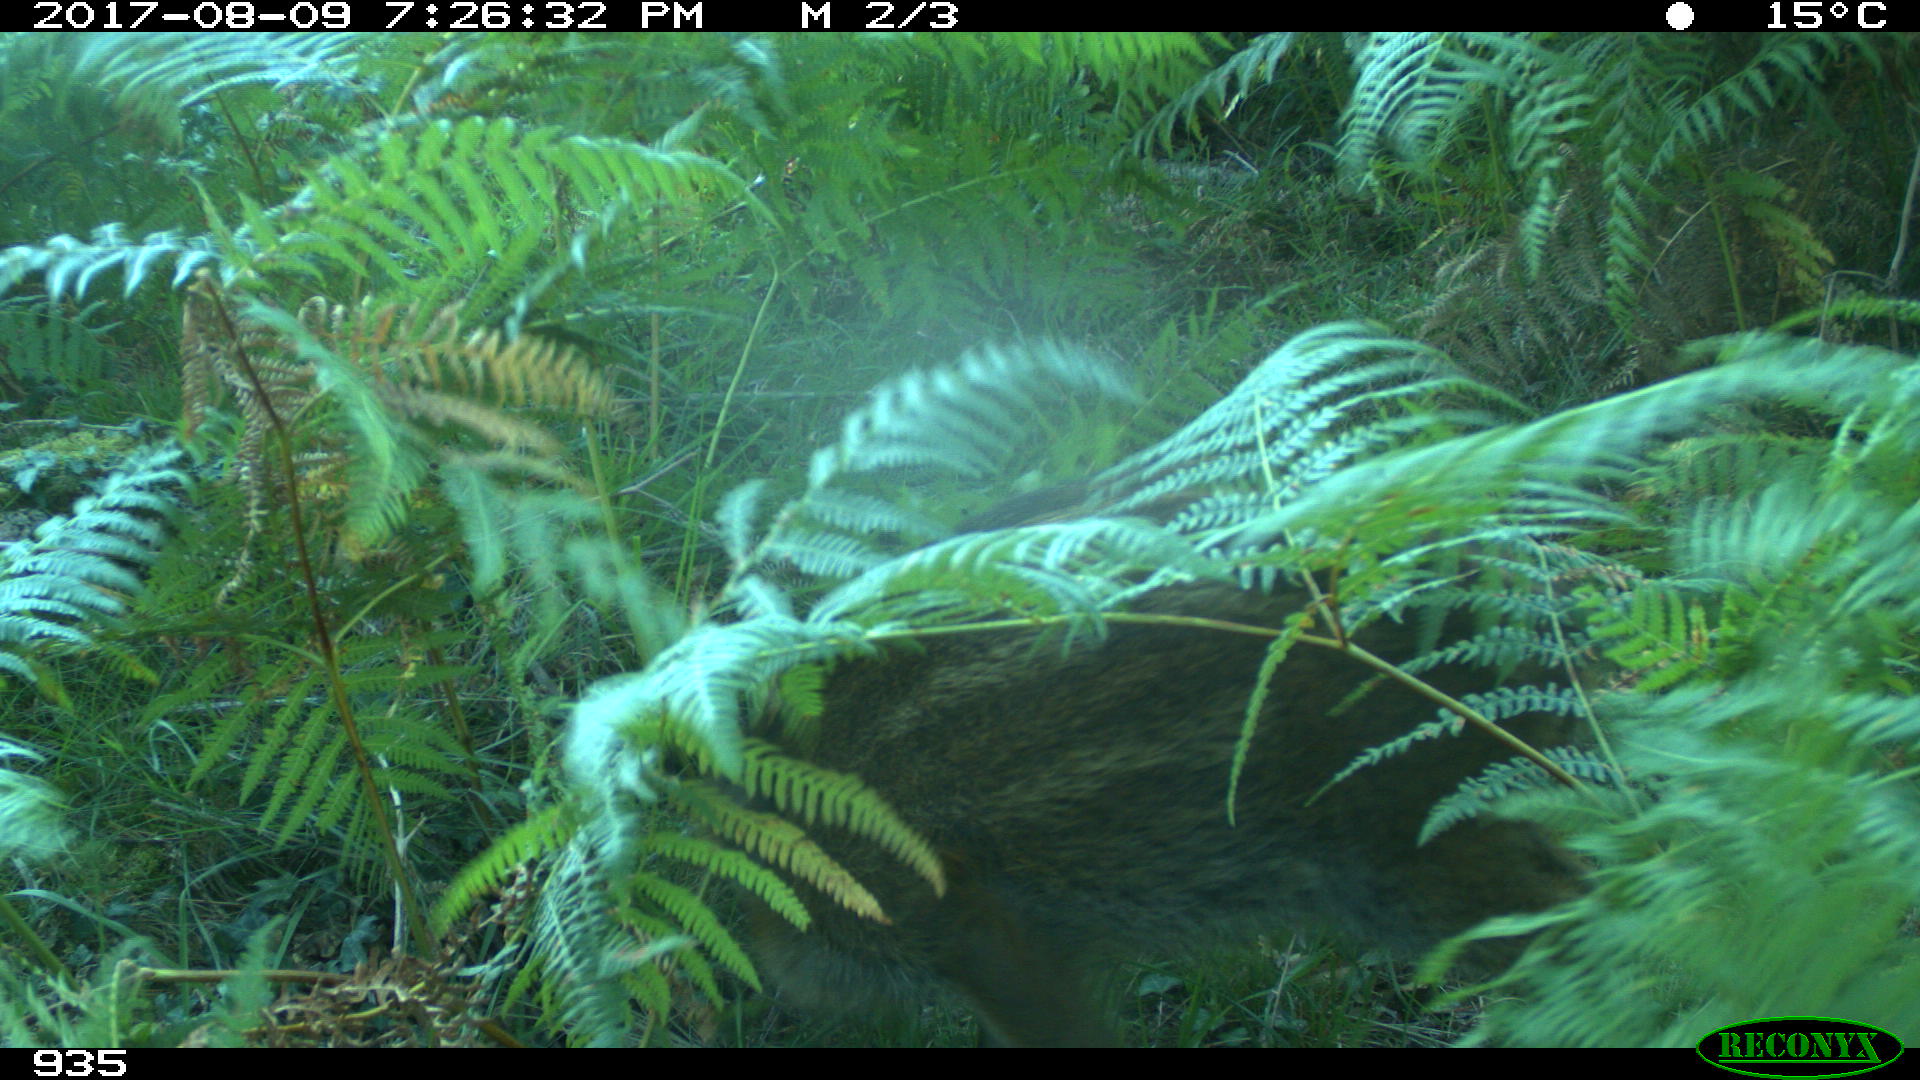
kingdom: Animalia
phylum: Chordata
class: Mammalia
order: Artiodactyla
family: Suidae
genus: Sus
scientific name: Sus scrofa
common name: Wild boar
